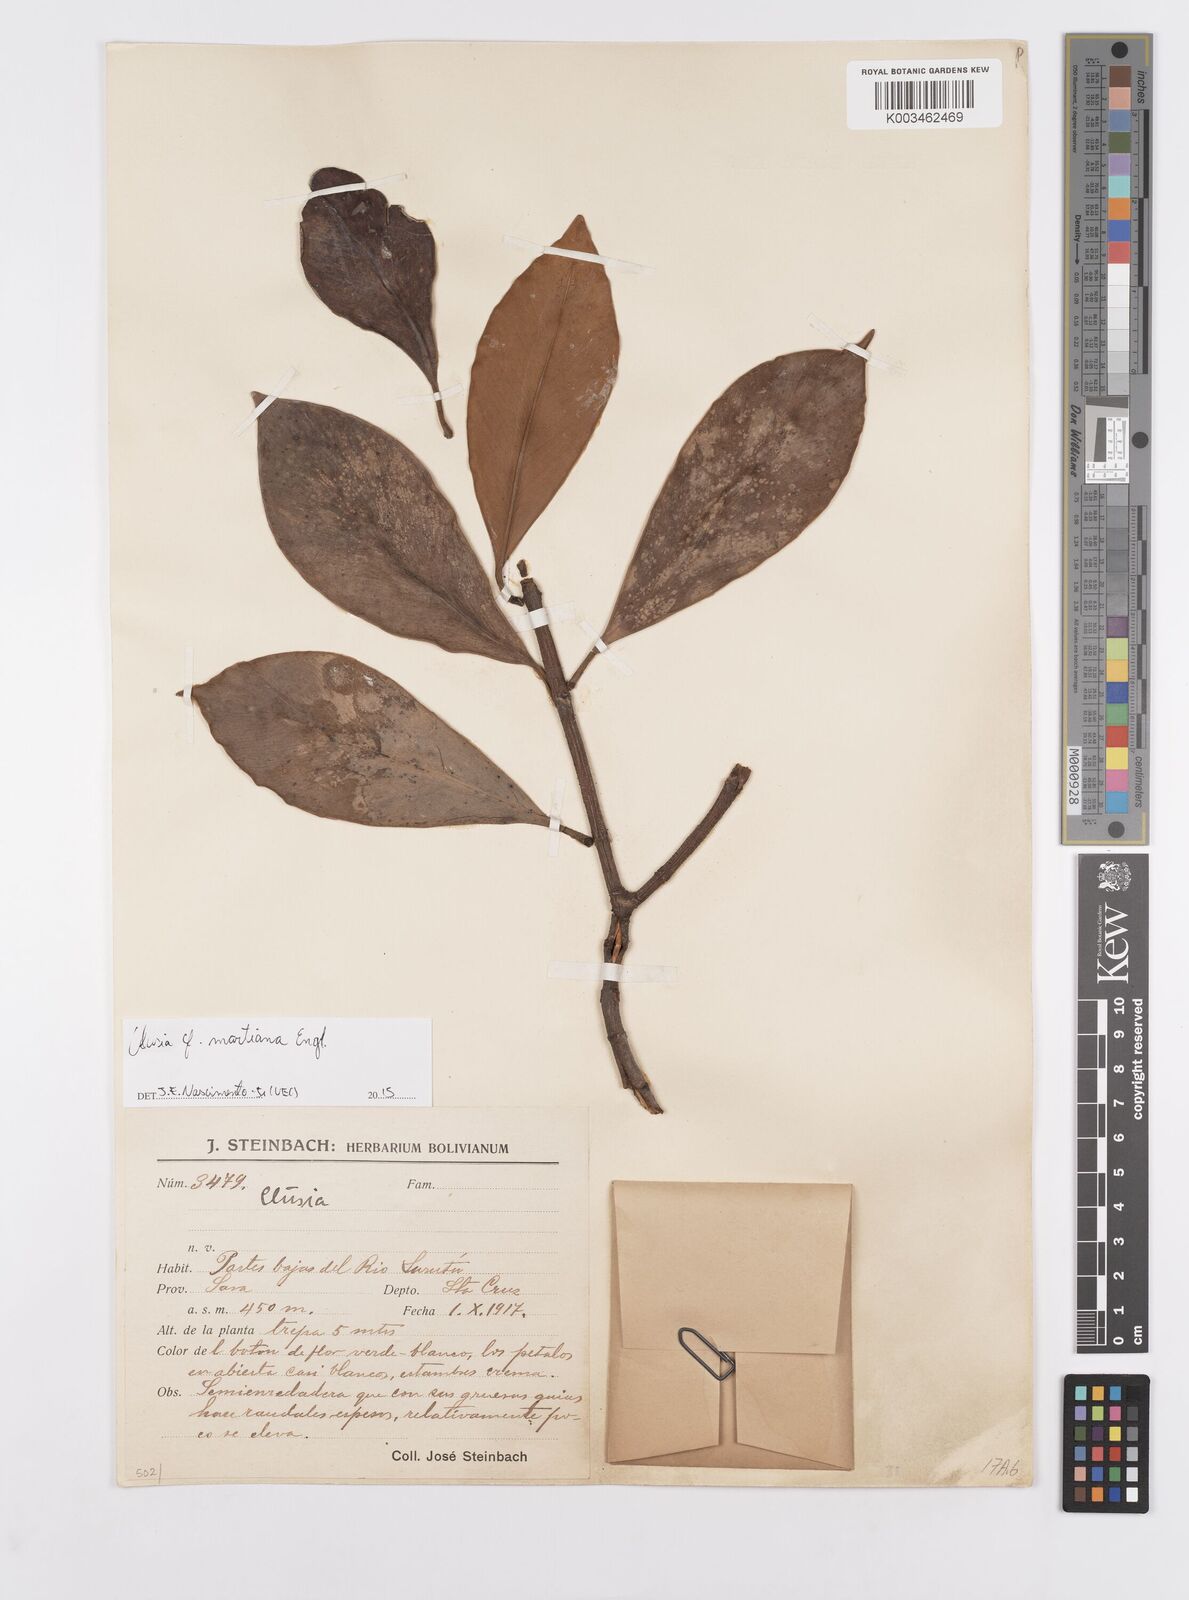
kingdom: Plantae
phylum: Tracheophyta
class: Magnoliopsida
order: Malpighiales
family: Clusiaceae
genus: Clusia
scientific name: Clusia martiana
